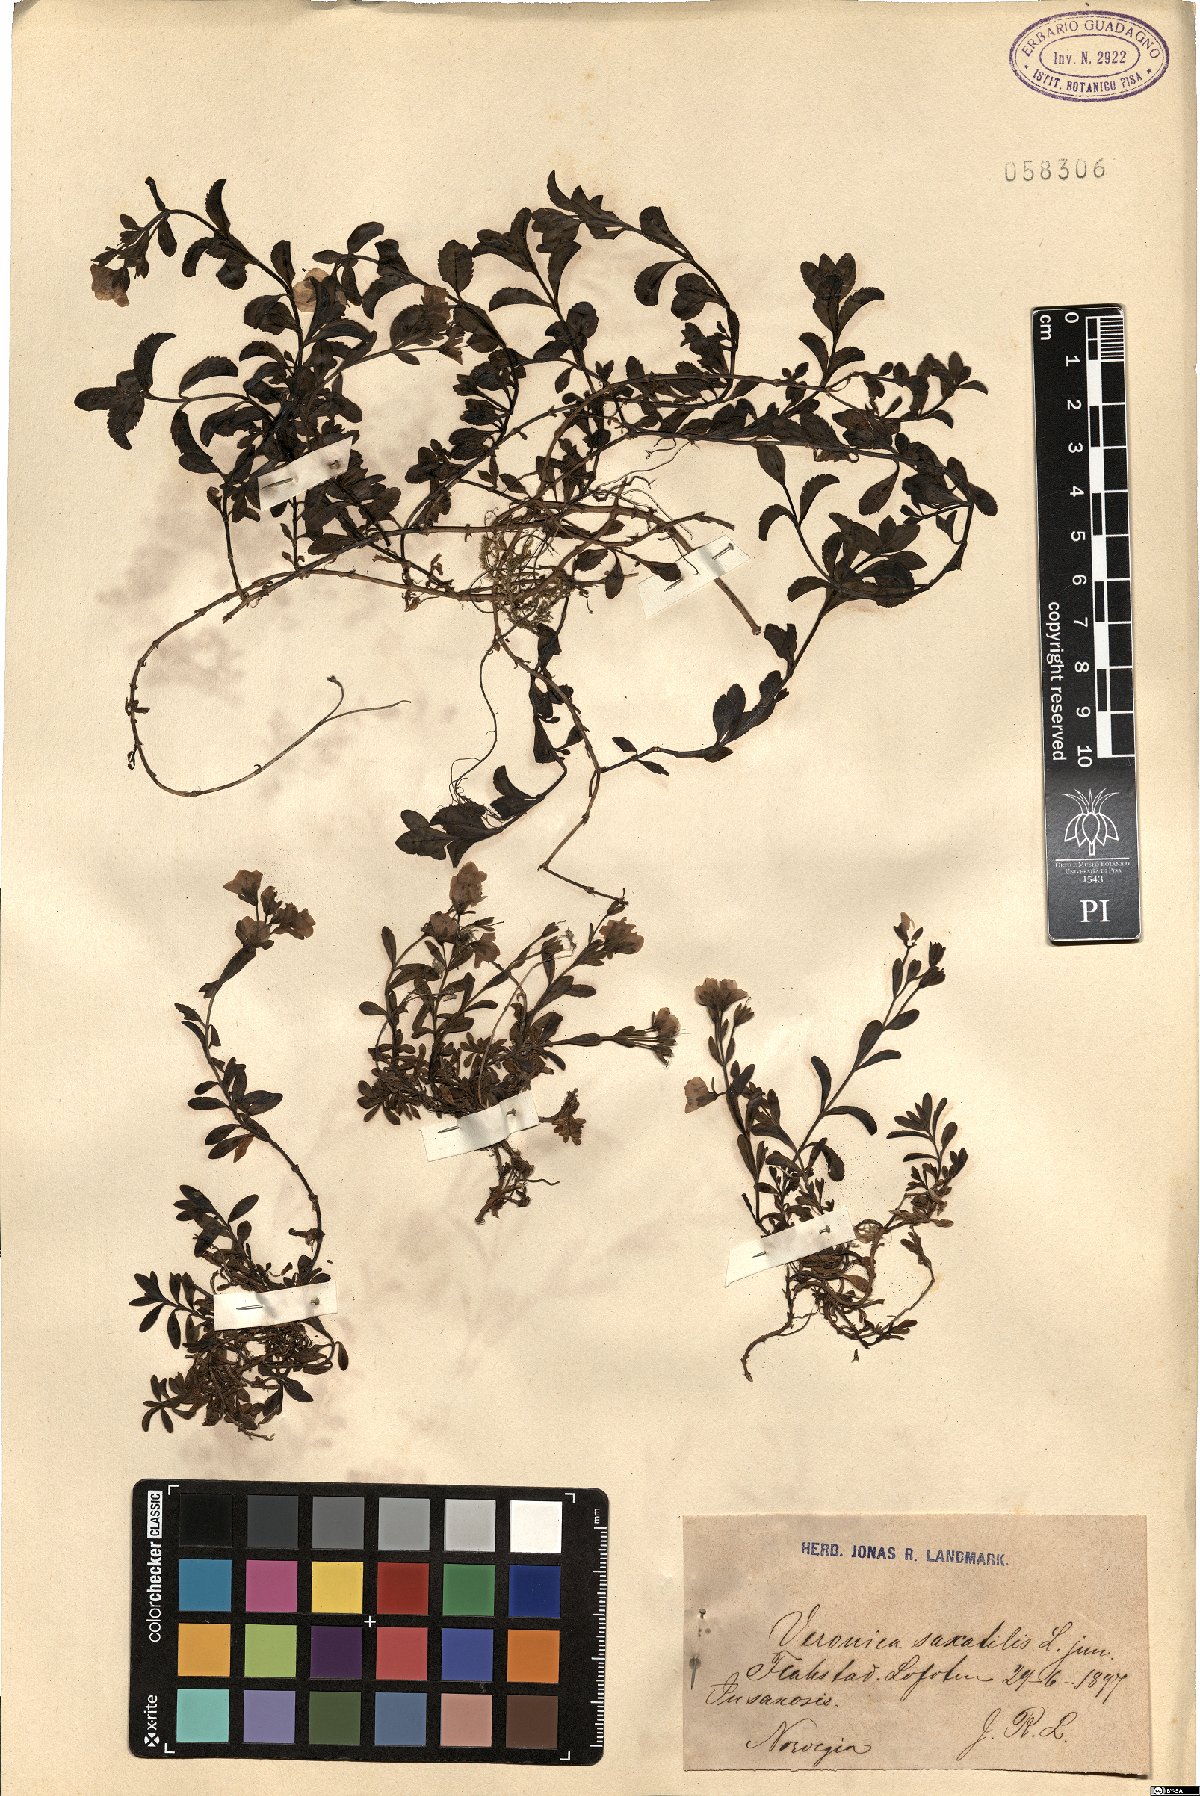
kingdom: Plantae
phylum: Tracheophyta
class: Magnoliopsida
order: Lamiales
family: Plantaginaceae
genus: Veronica
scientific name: Veronica fruticans
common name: Rock speedwell
